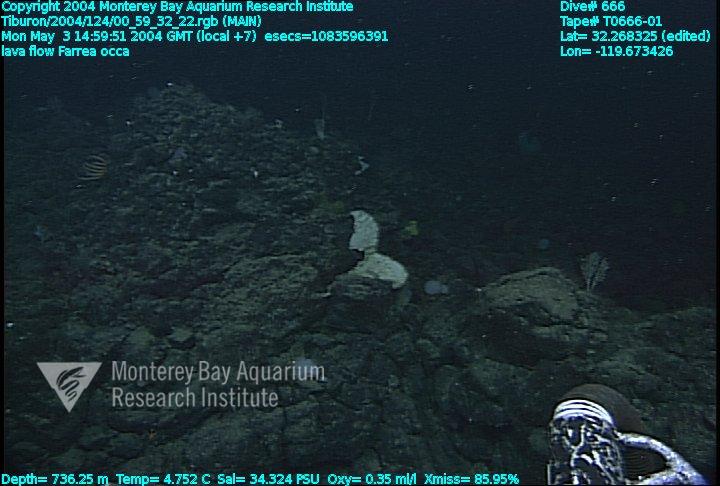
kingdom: Animalia
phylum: Porifera
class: Hexactinellida
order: Sceptrulophora
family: Farreidae
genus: Farrea
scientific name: Farrea occa
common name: Reversed glass sponge
